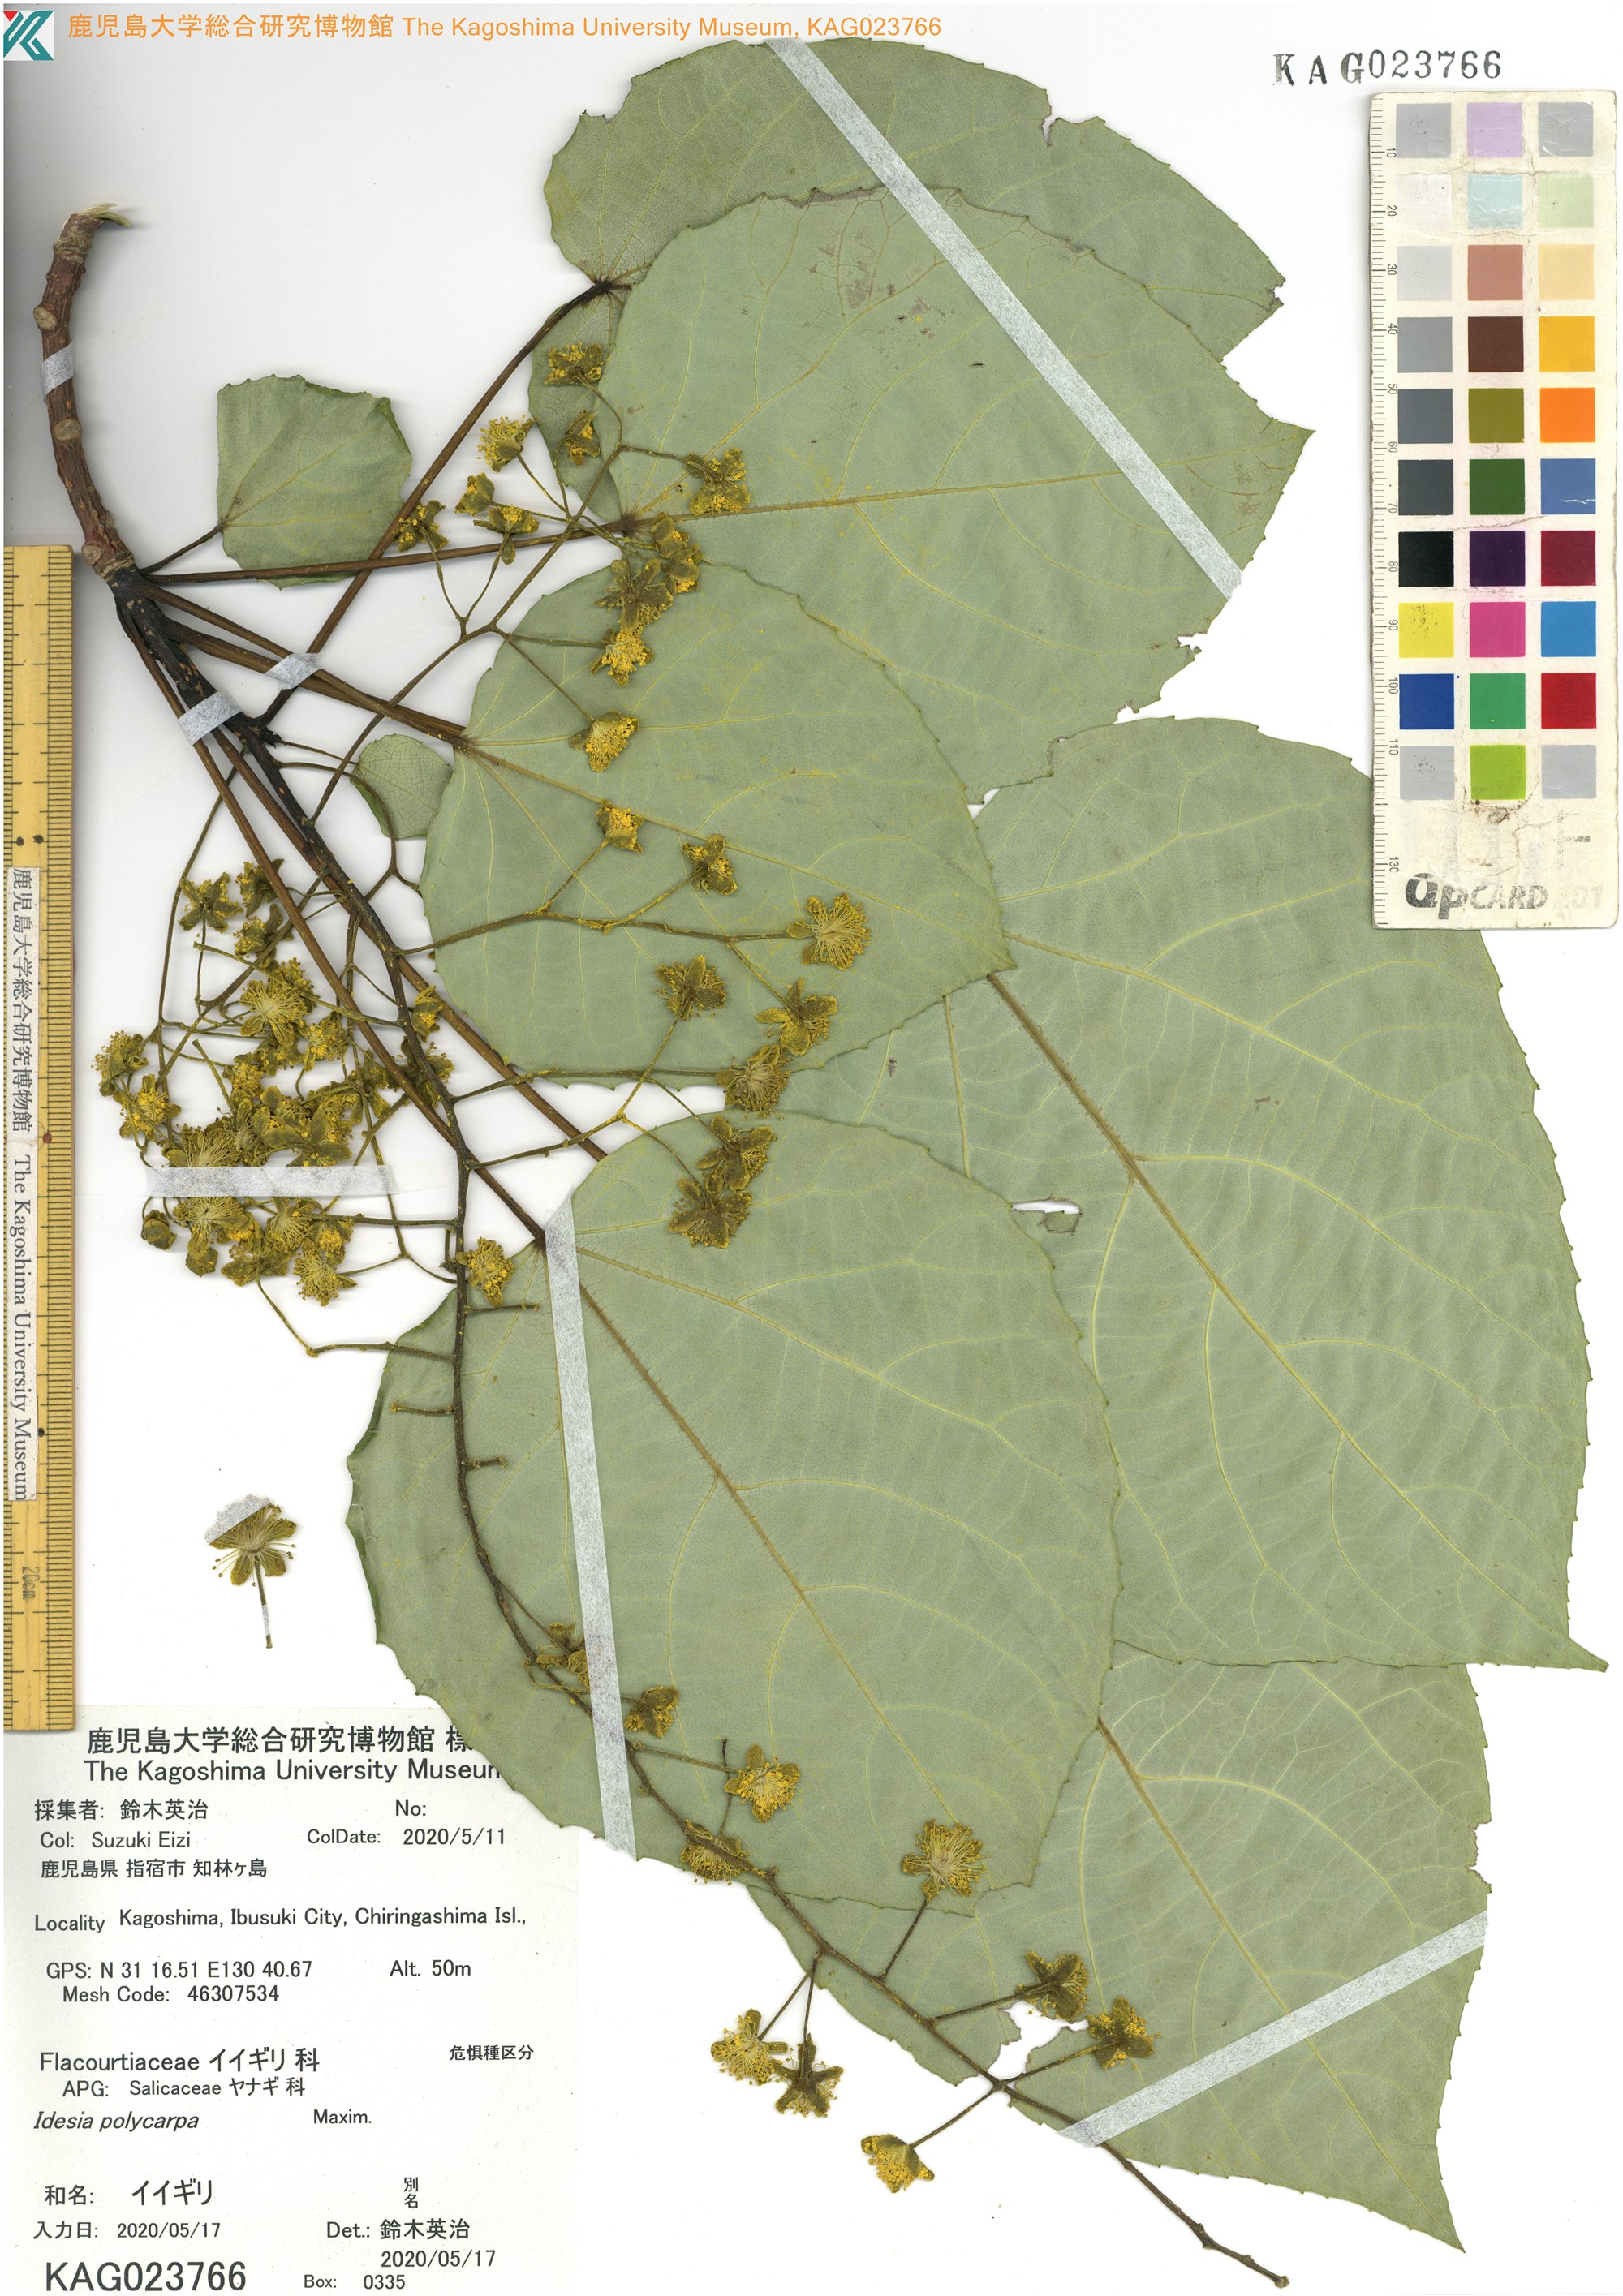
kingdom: Plantae
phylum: Tracheophyta
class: Magnoliopsida
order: Malpighiales
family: Salicaceae
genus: Idesia
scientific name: Idesia polycarpa
